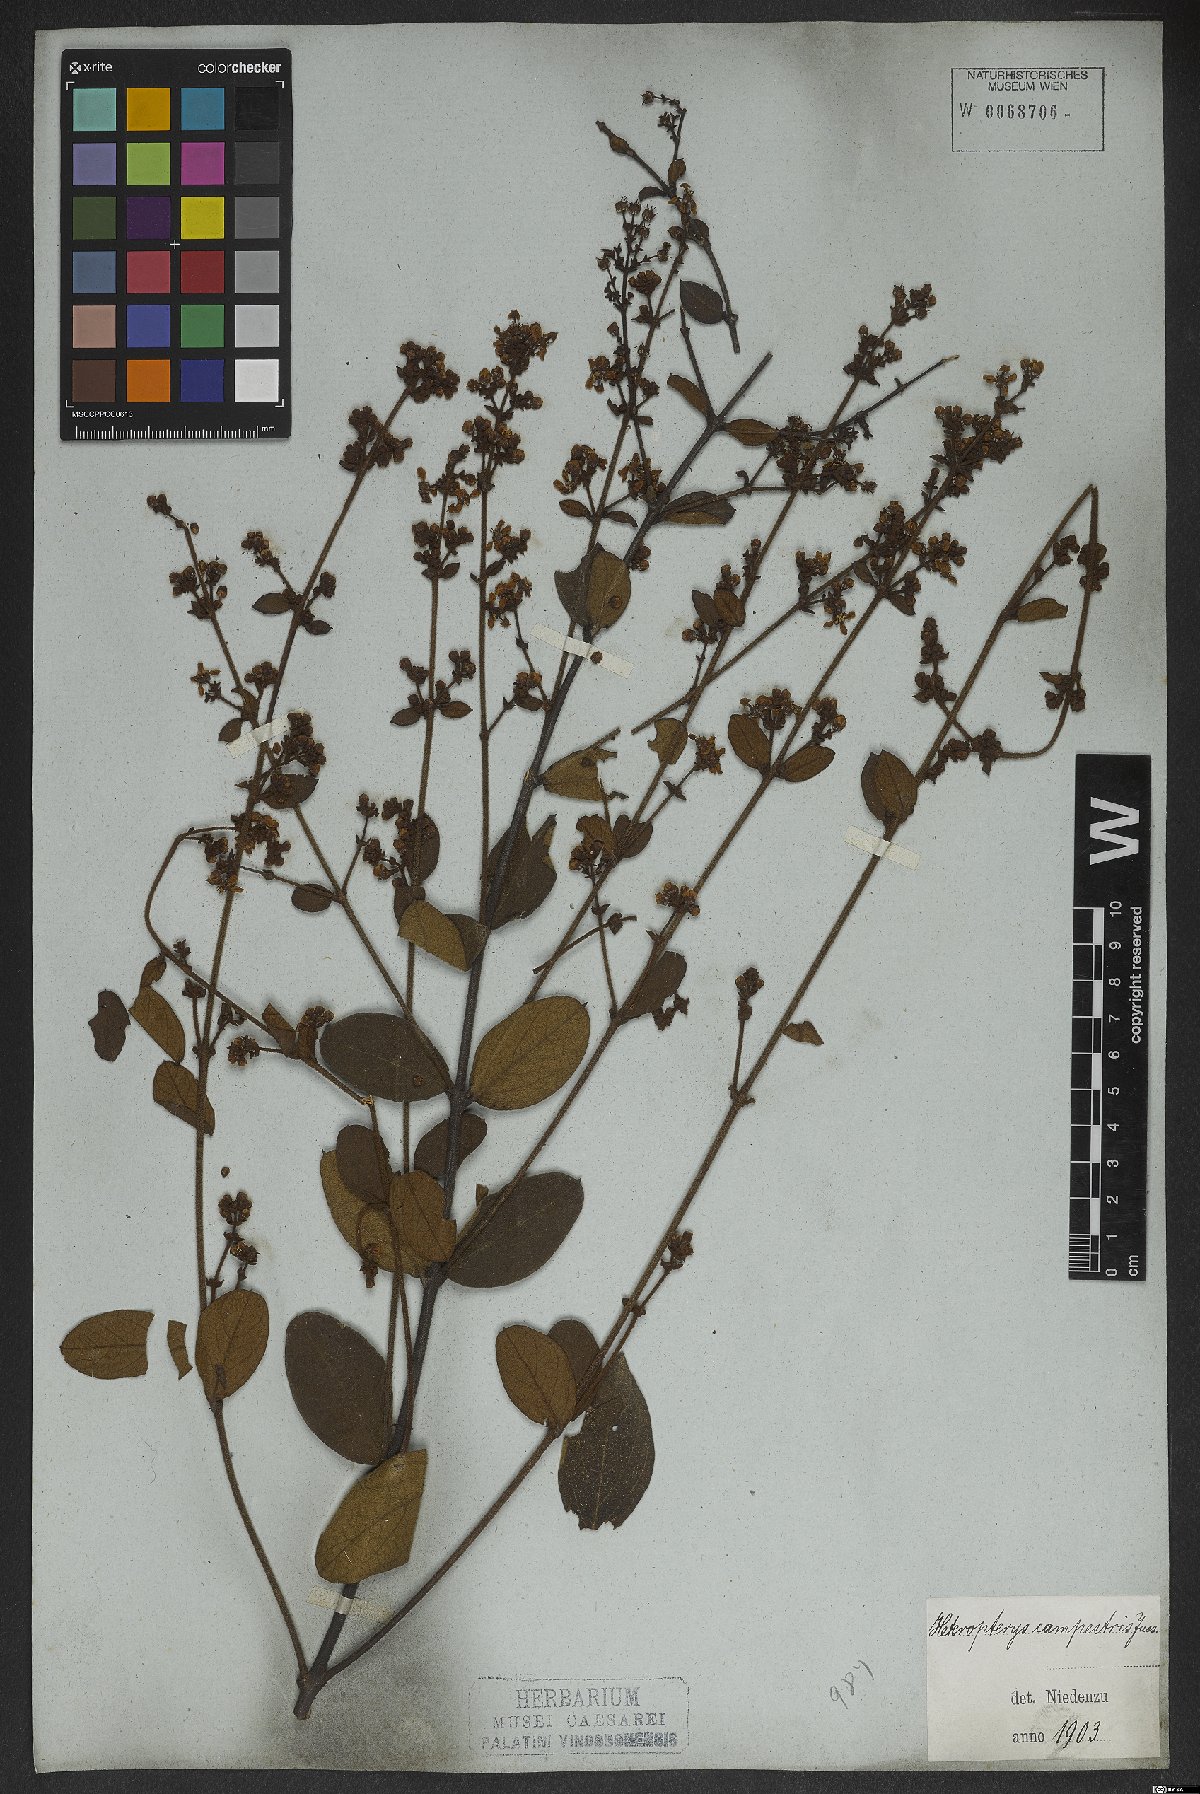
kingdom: Plantae
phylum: Tracheophyta
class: Magnoliopsida
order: Malpighiales
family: Malpighiaceae
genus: Heteropterys
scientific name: Heteropterys campestris
